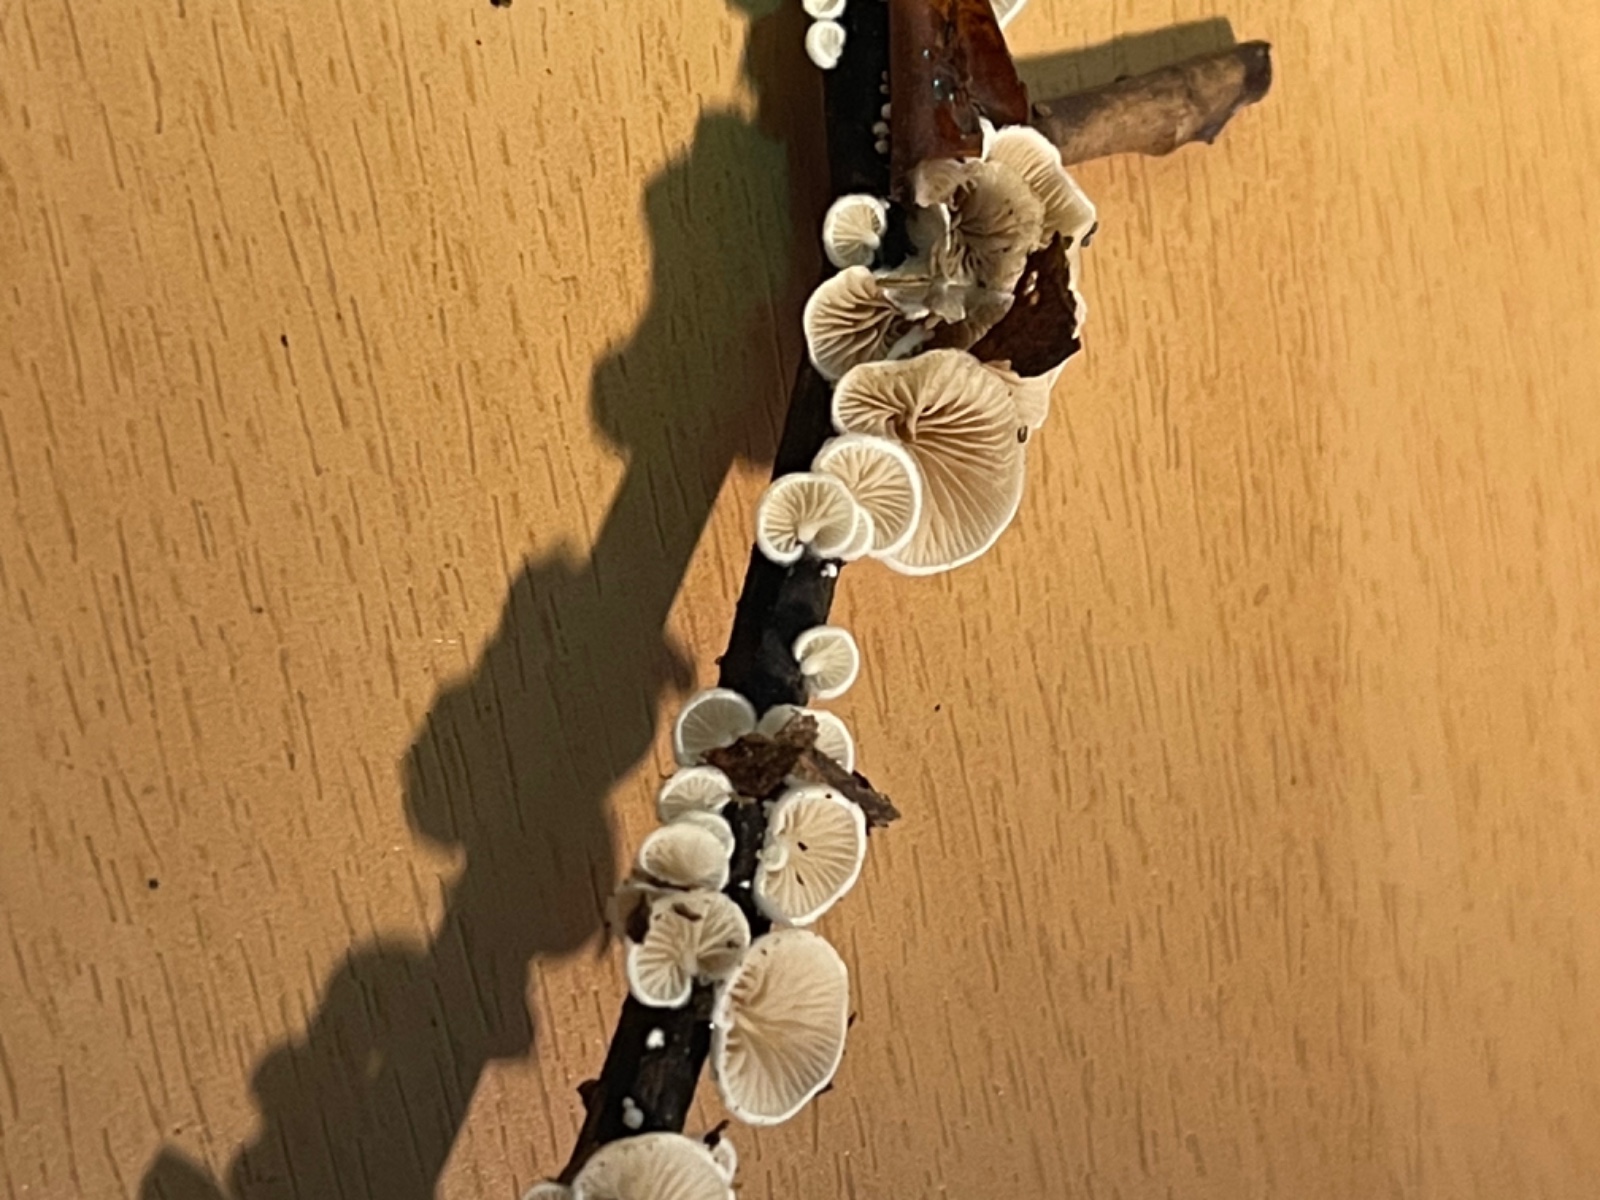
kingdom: Fungi
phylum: Basidiomycota
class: Agaricomycetes
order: Agaricales
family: Crepidotaceae
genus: Crepidotus
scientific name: Crepidotus
